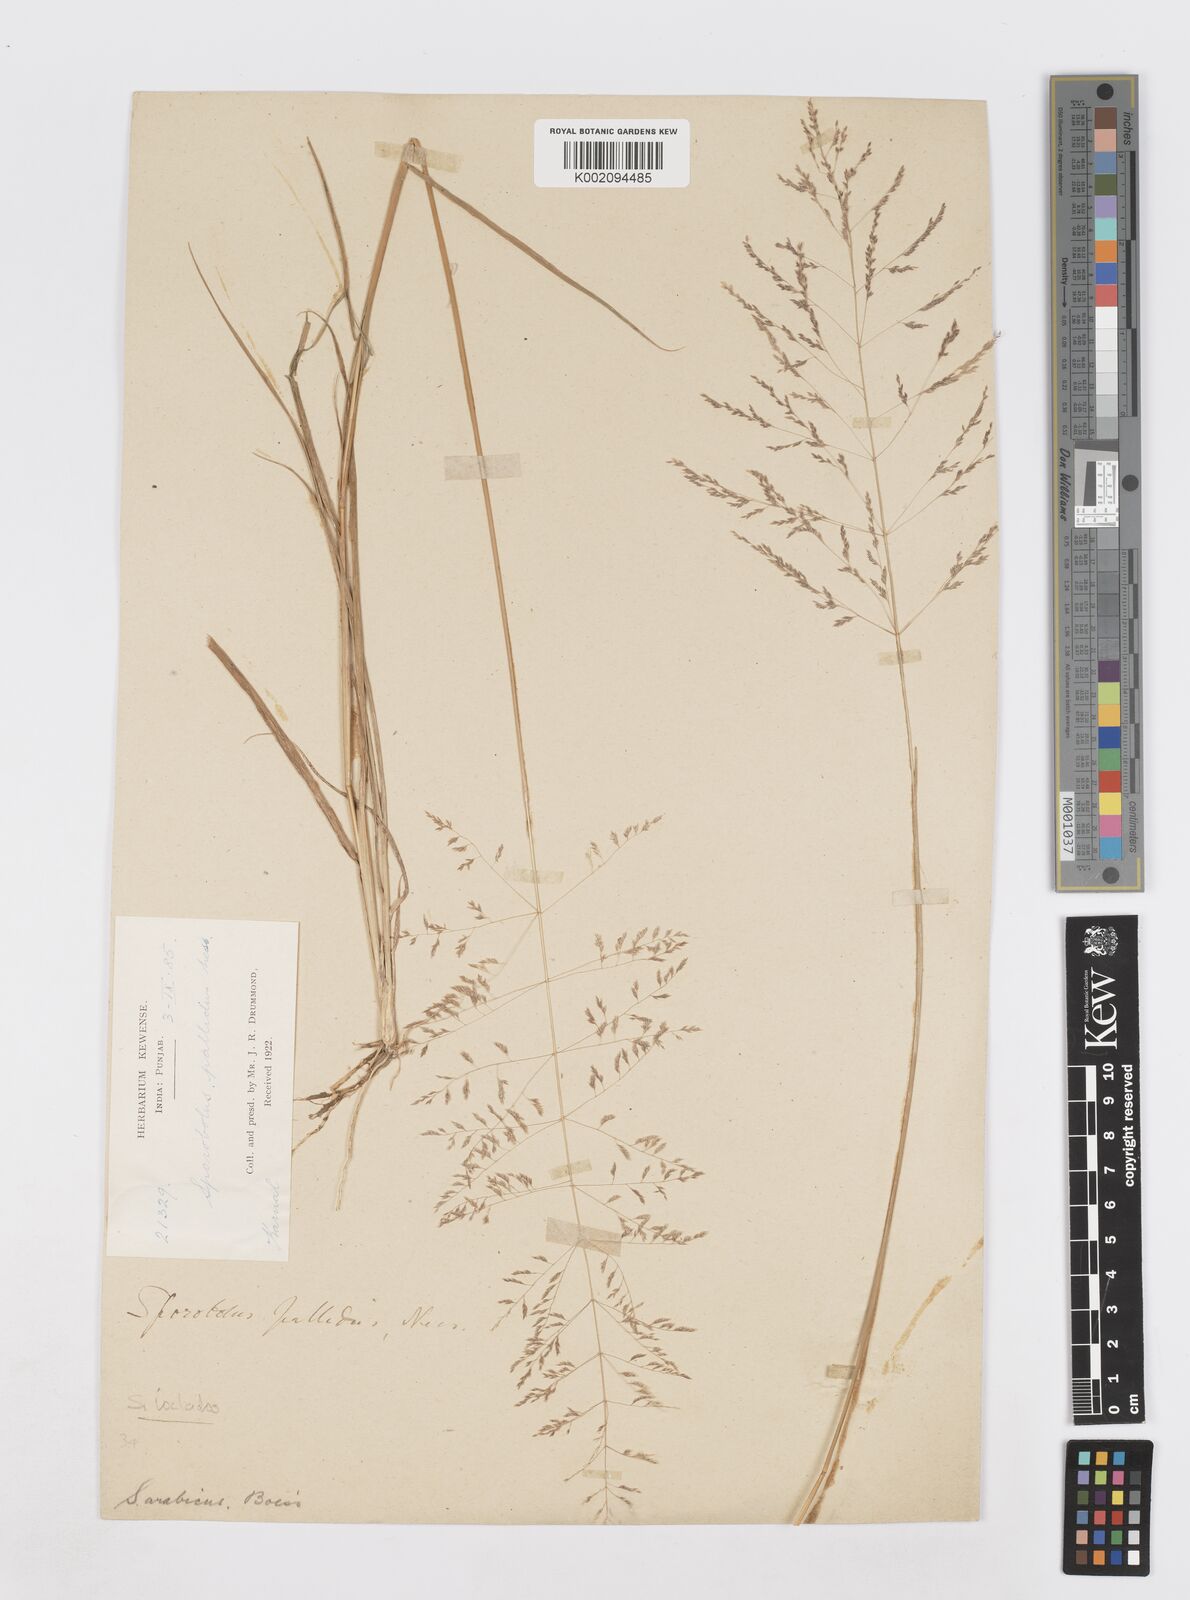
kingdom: Plantae
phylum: Tracheophyta
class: Liliopsida
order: Poales
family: Poaceae
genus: Sporobolus
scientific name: Sporobolus ioclados
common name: Pan dropseed
